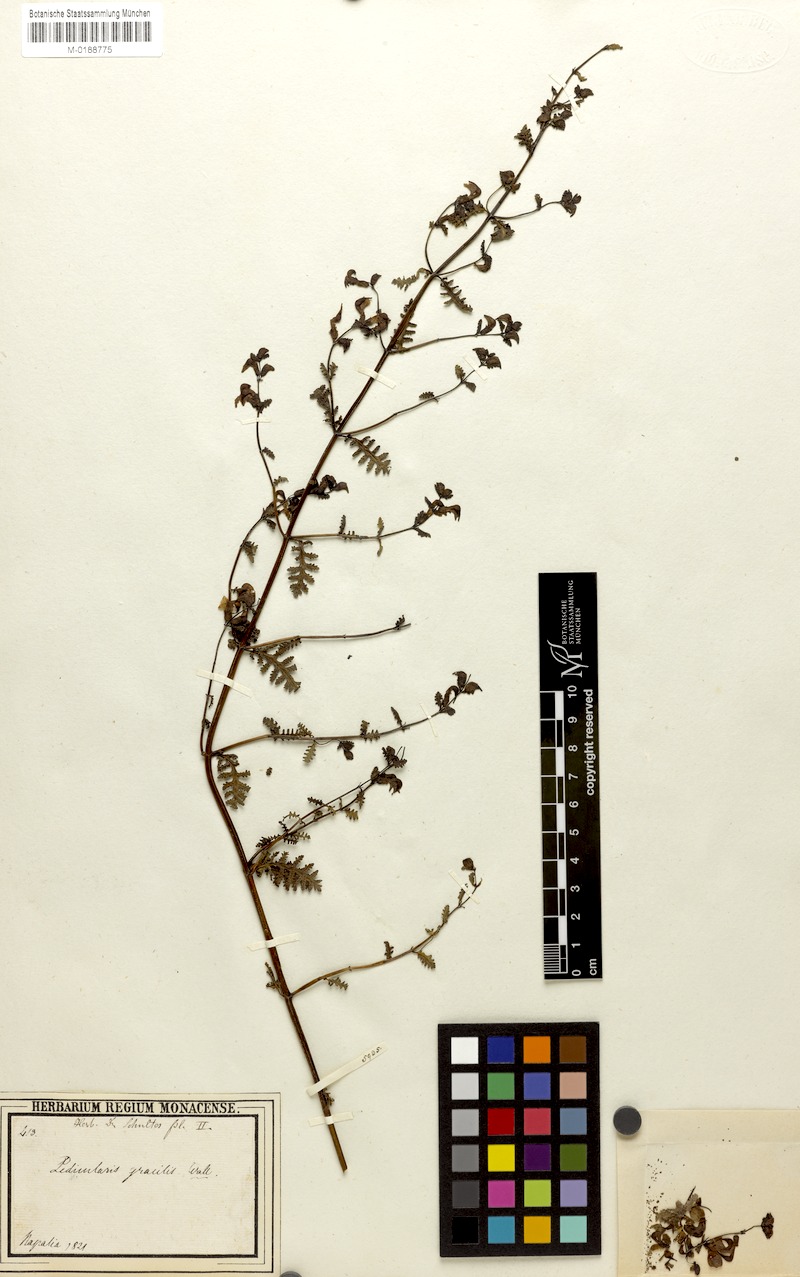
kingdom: Plantae
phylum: Tracheophyta
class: Magnoliopsida
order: Lamiales
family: Orobanchaceae
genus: Pedicularis
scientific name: Pedicularis gracilis
